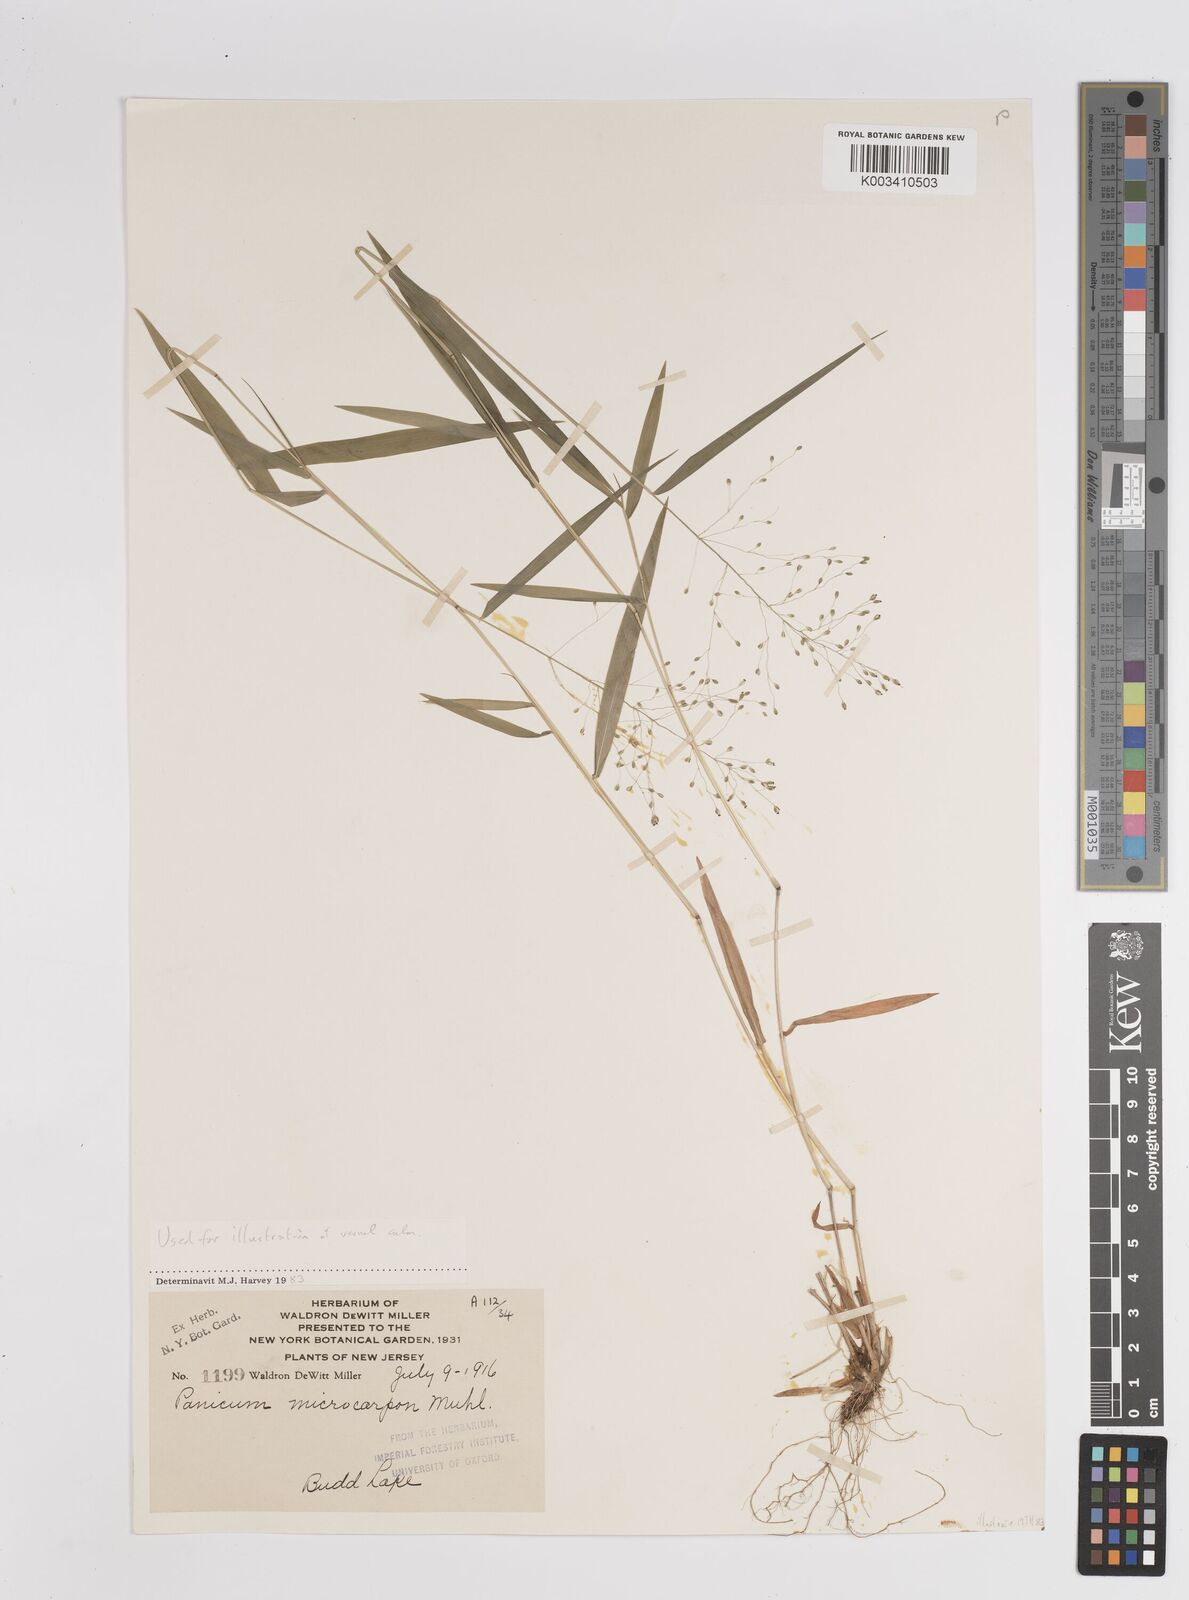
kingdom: Plantae
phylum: Tracheophyta
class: Liliopsida
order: Poales
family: Poaceae
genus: Dichanthelium
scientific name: Dichanthelium polyanthes
